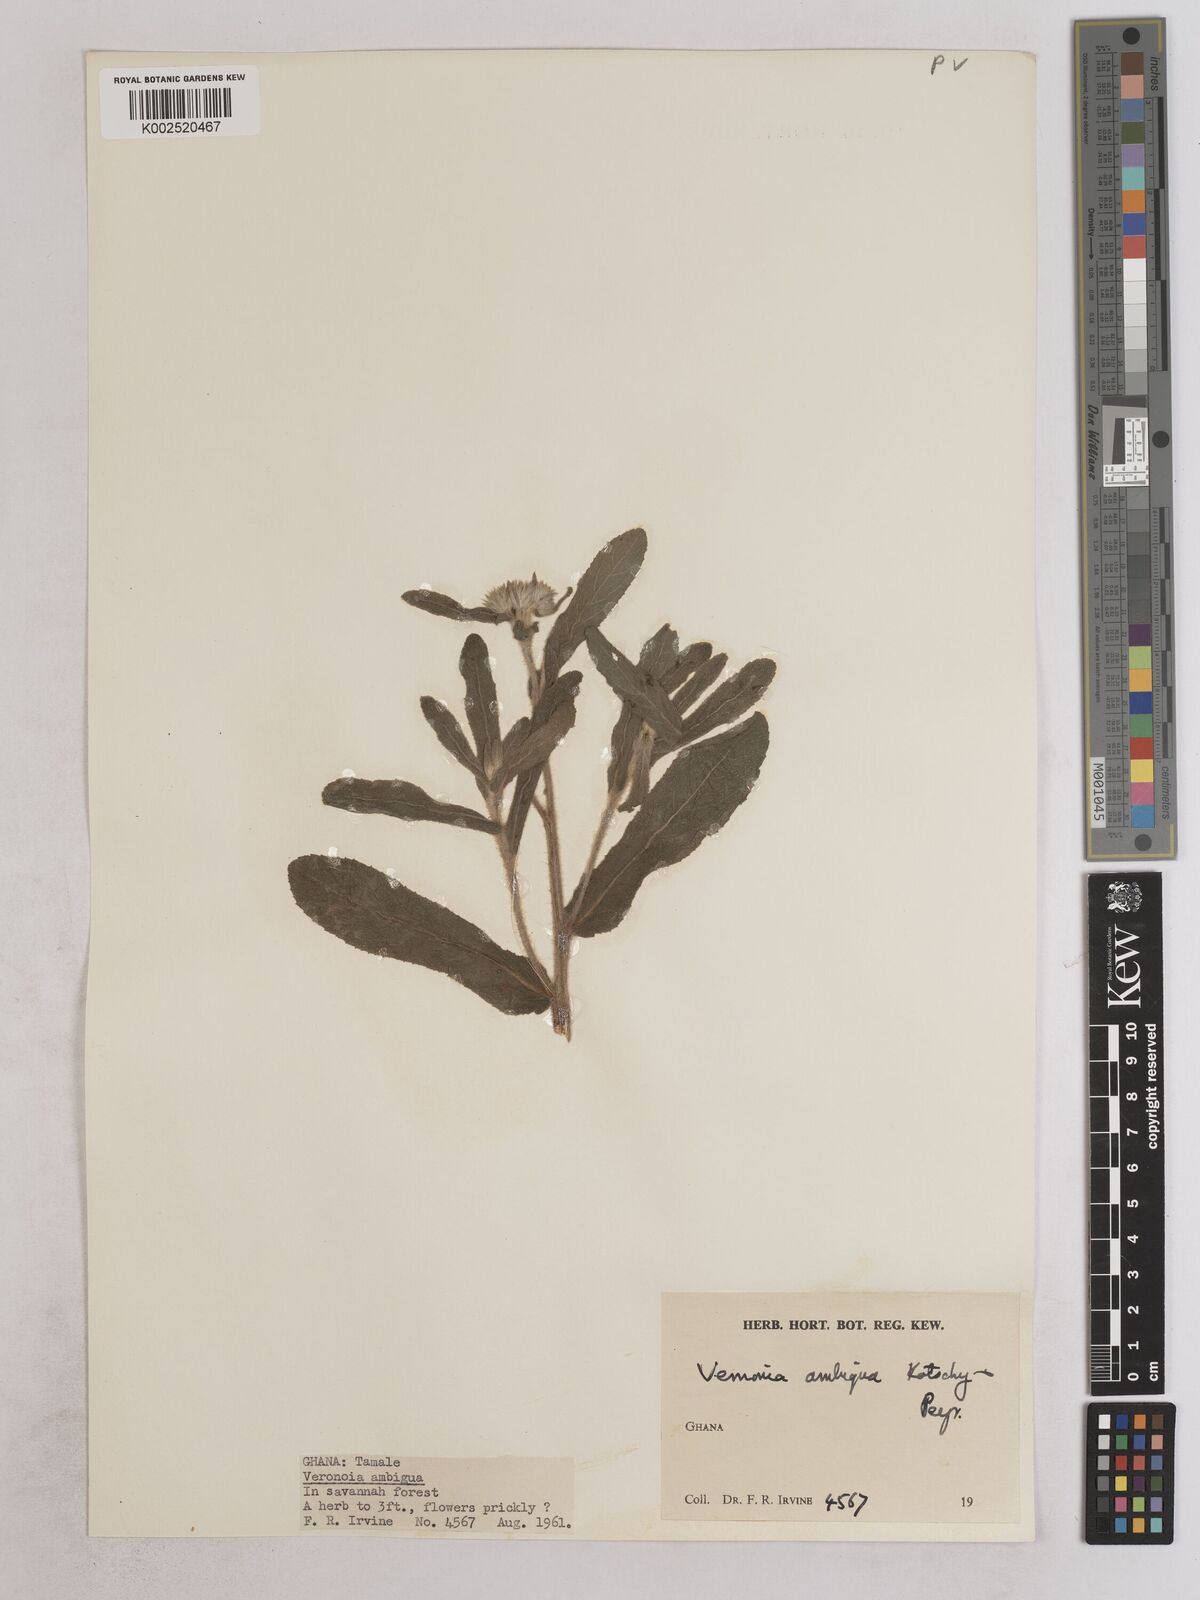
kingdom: Plantae
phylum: Tracheophyta
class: Magnoliopsida
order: Asterales
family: Asteraceae
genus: Vernoniastrum
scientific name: Vernoniastrum ambiguum
